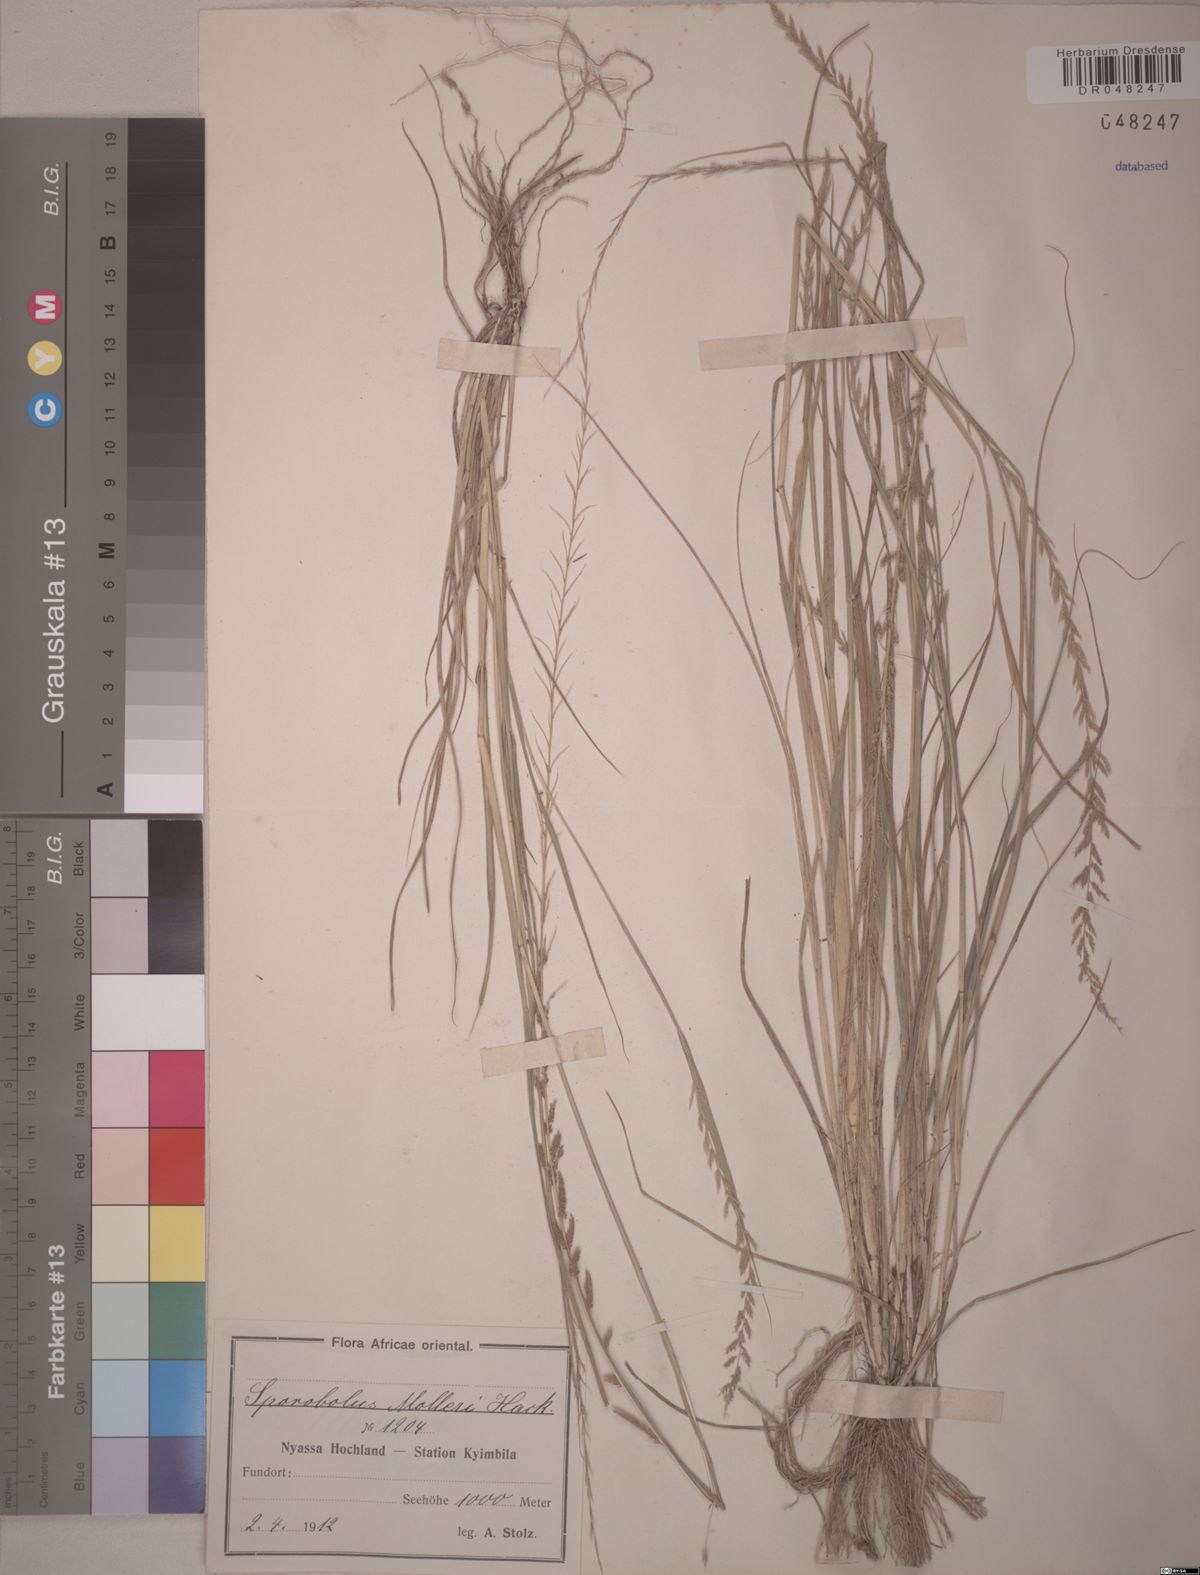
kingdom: Plantae
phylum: Tracheophyta
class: Liliopsida
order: Poales
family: Poaceae
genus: Sporobolus
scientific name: Sporobolus molleri
